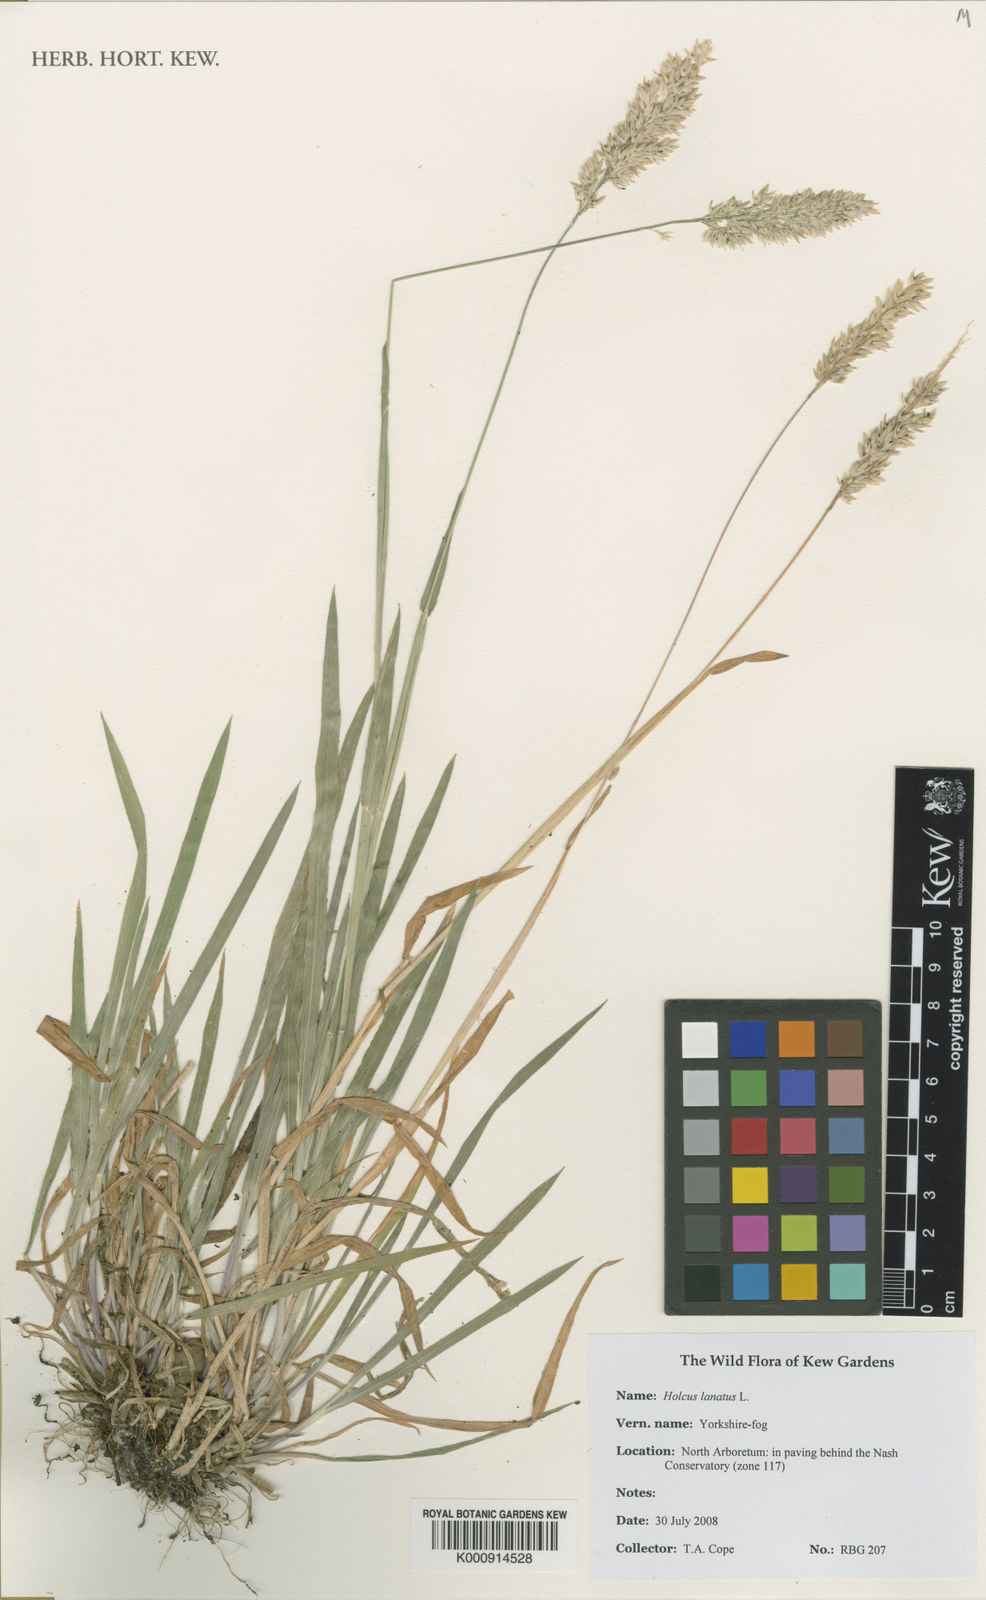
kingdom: Plantae
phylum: Tracheophyta
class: Liliopsida
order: Poales
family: Poaceae
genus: Holcus
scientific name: Holcus lanatus
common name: Yorkshire-fog
